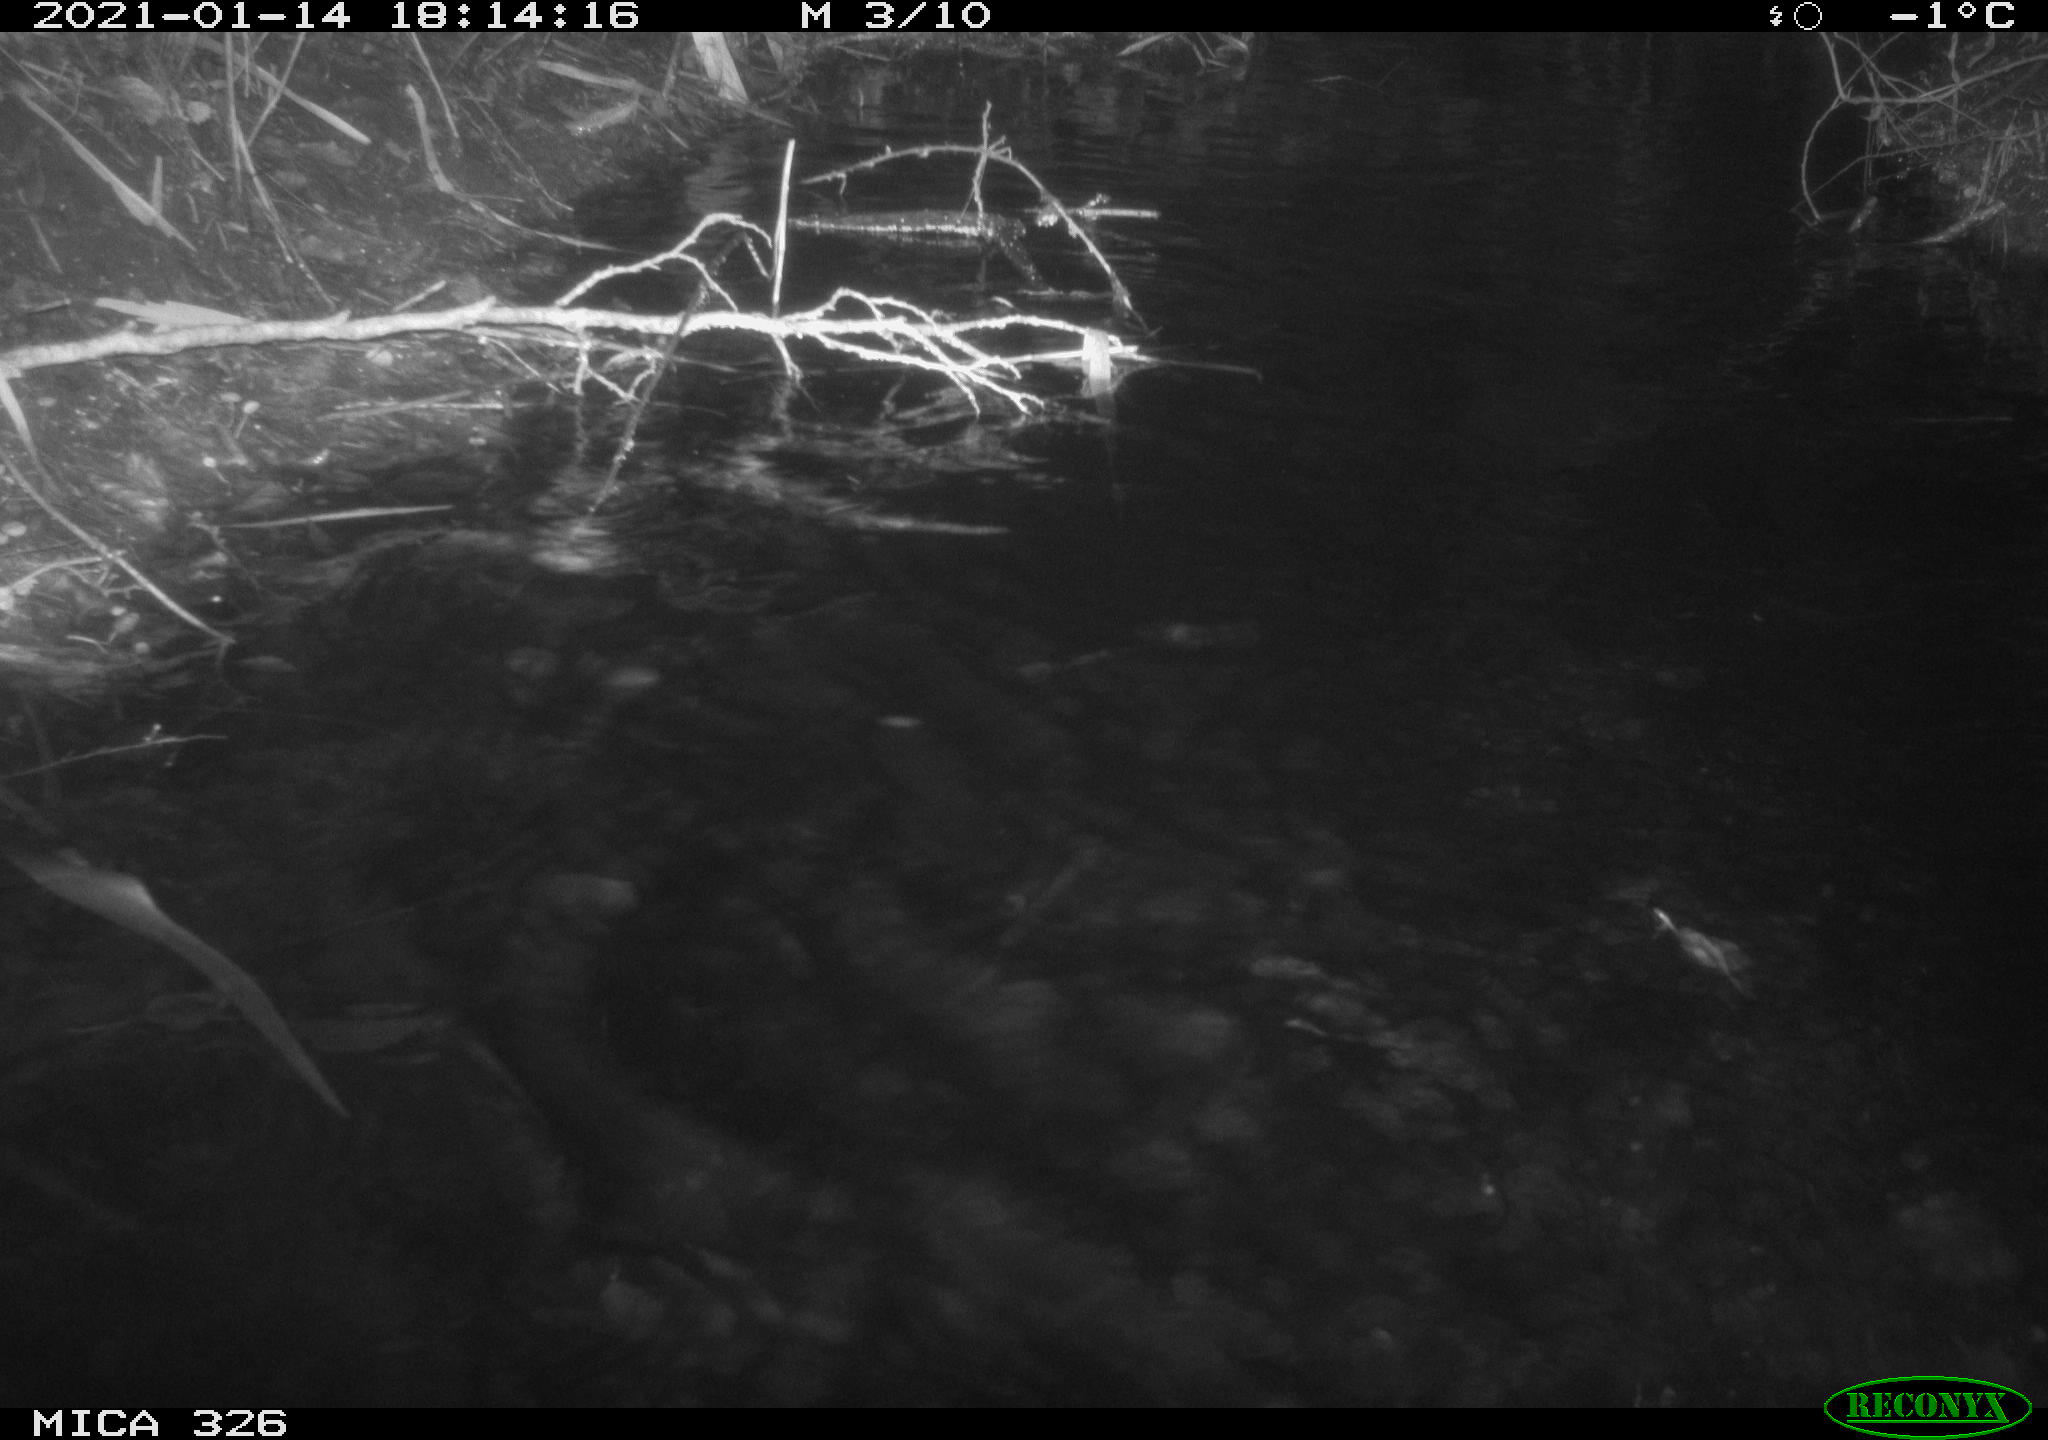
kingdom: Animalia
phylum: Chordata
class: Mammalia
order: Carnivora
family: Mustelidae
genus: Lutra
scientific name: Lutra lutra
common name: European otter
